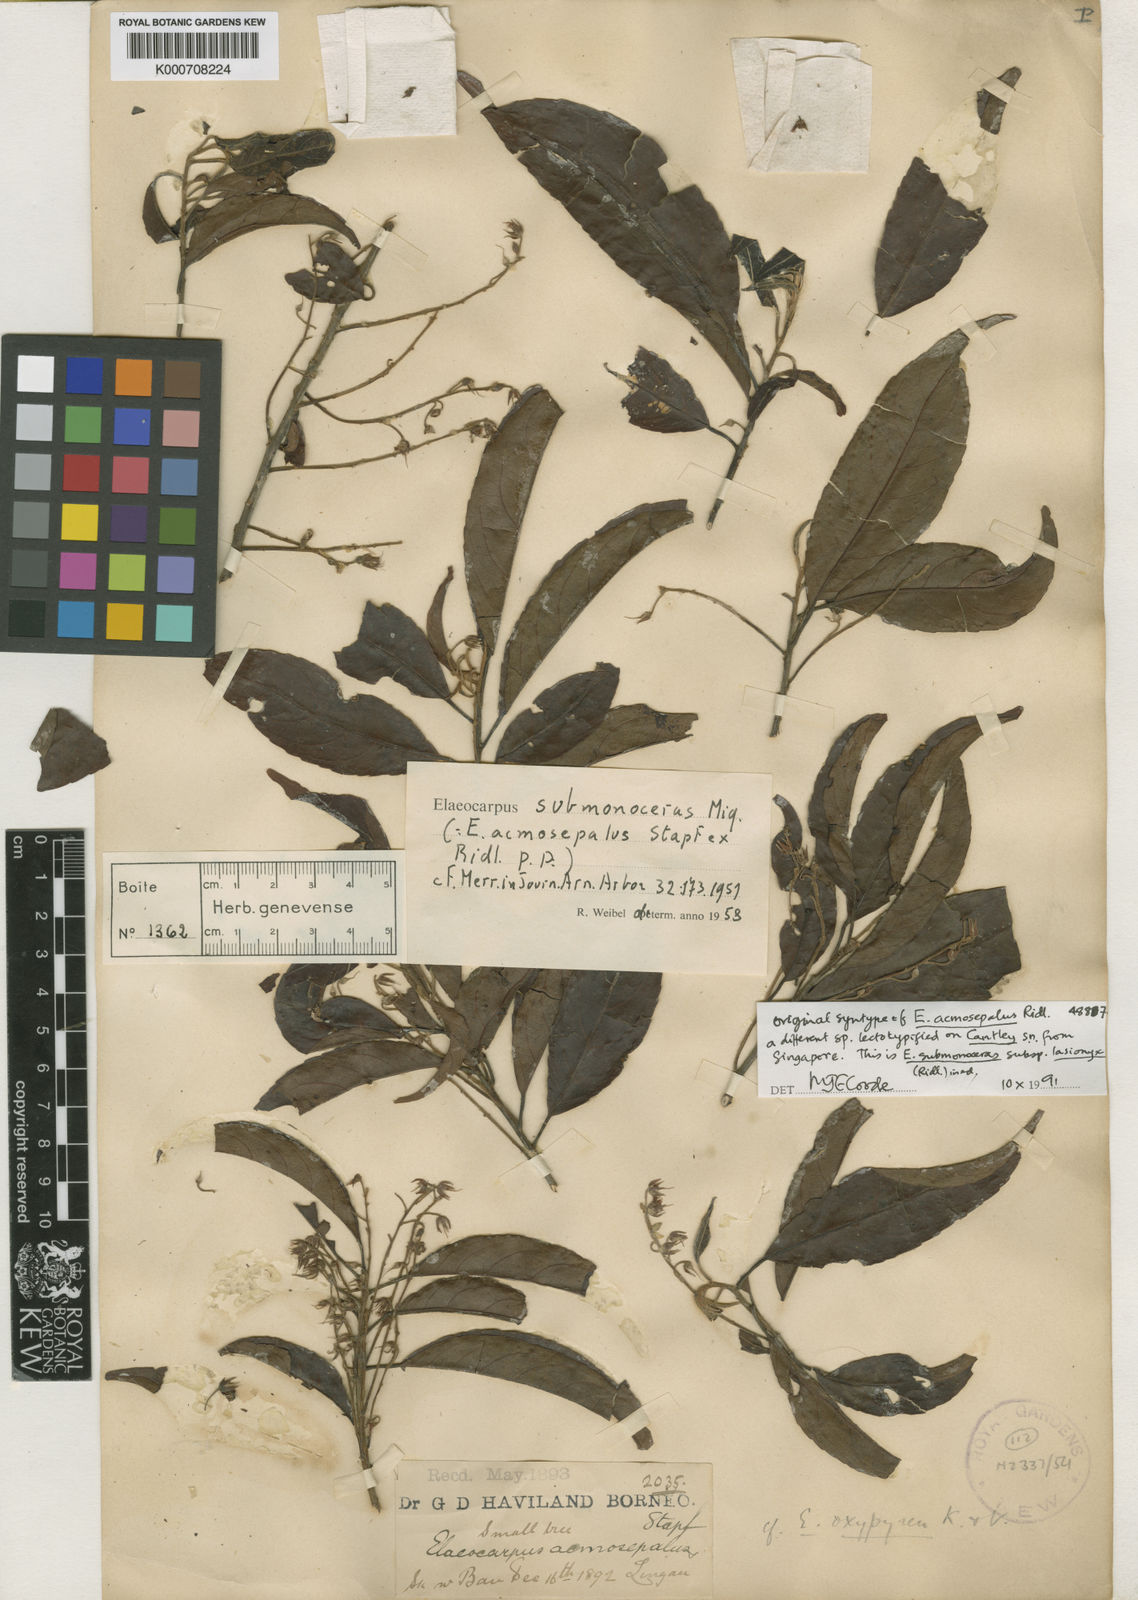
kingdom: Plantae
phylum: Tracheophyta
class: Magnoliopsida
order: Oxalidales
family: Elaeocarpaceae
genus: Elaeocarpus
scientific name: Elaeocarpus submonoceras
